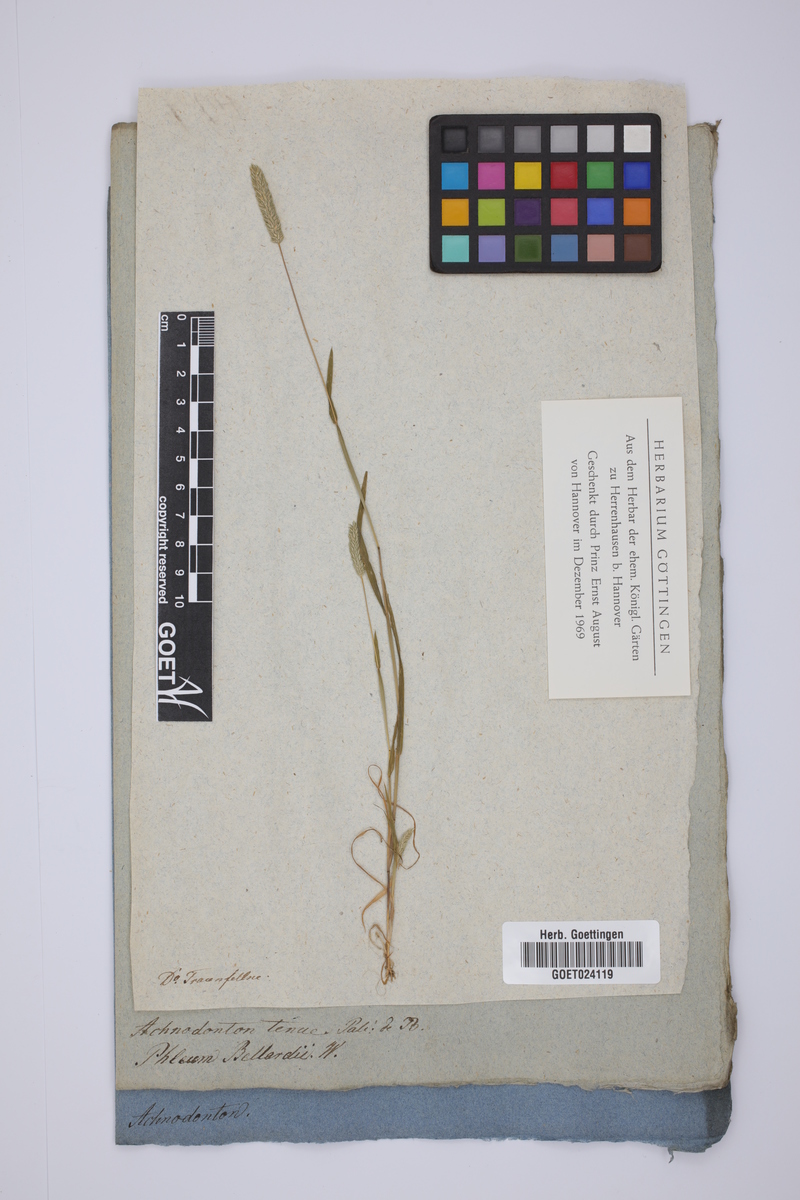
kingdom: Plantae
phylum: Tracheophyta
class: Liliopsida
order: Poales
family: Poaceae
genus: Phleum
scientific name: Phleum subulatum
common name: Italian timothy
